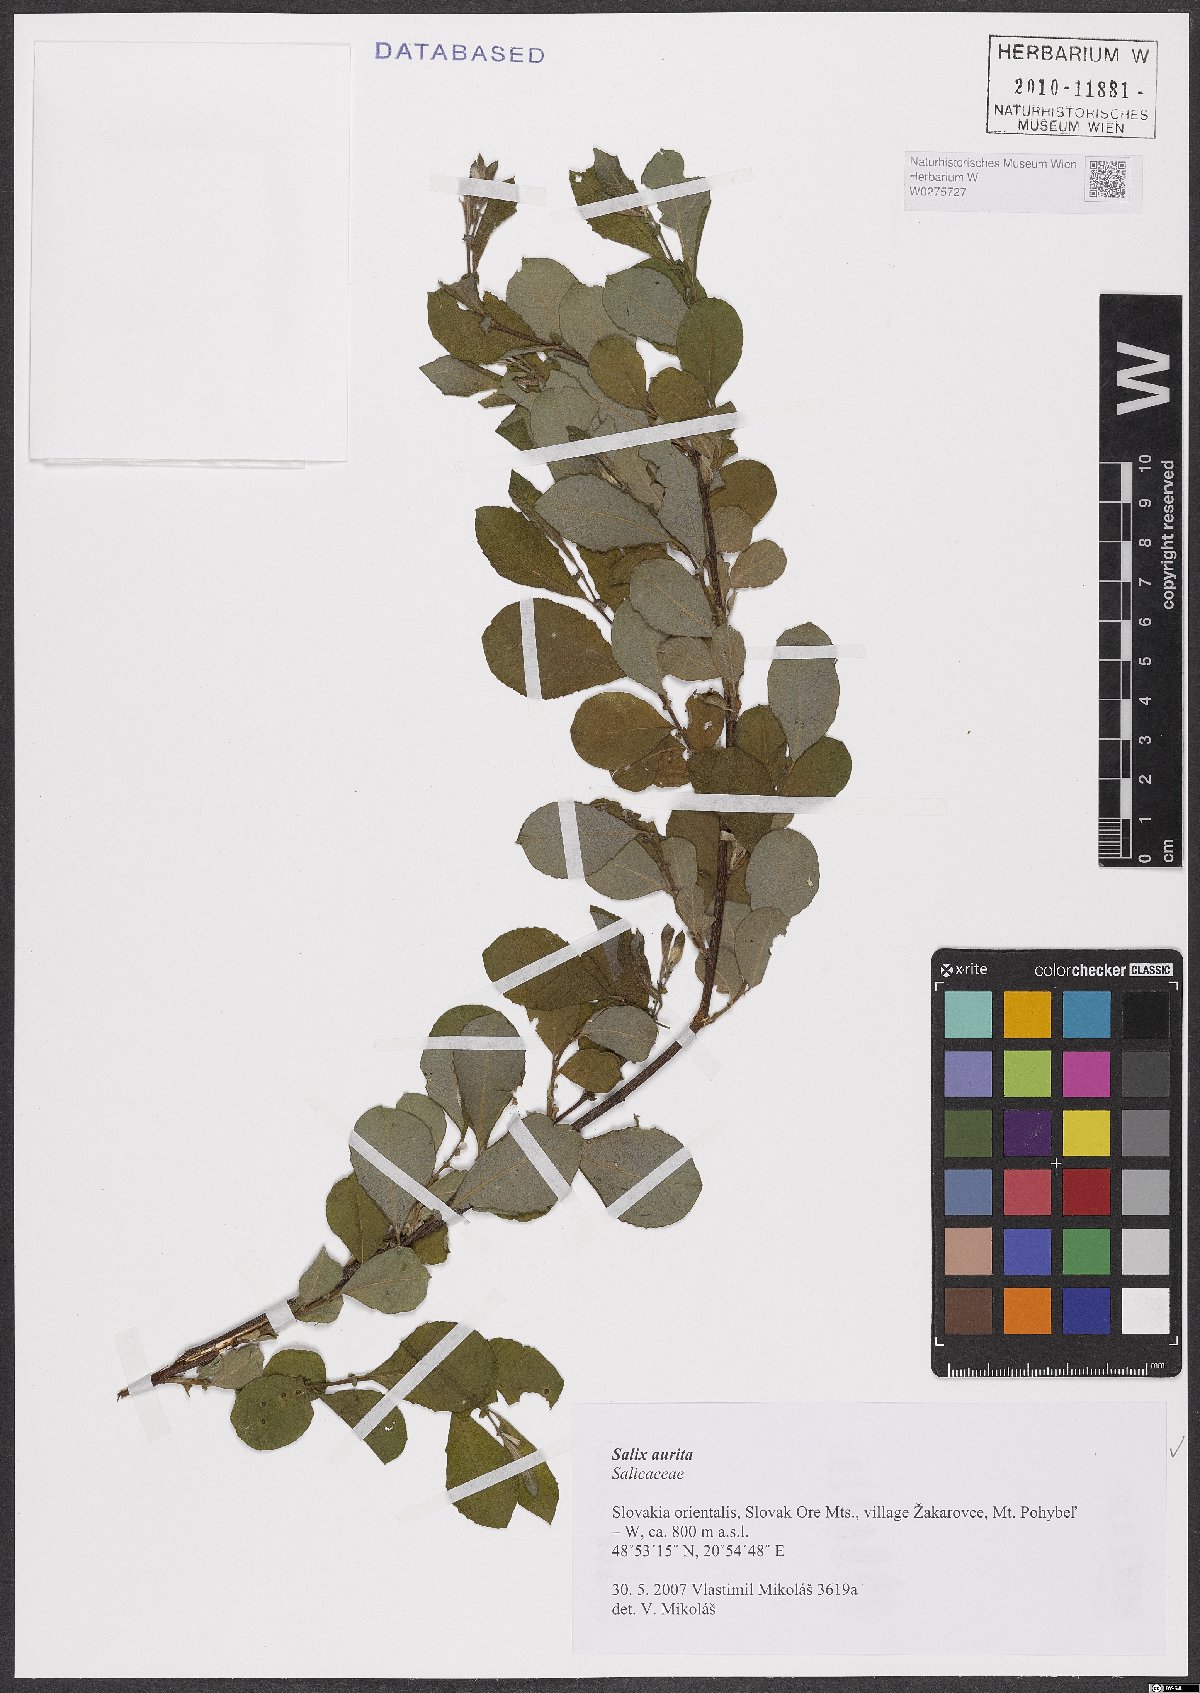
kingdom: Plantae
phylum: Tracheophyta
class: Magnoliopsida
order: Malpighiales
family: Salicaceae
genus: Salix
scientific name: Salix aurita
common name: Eared willow
